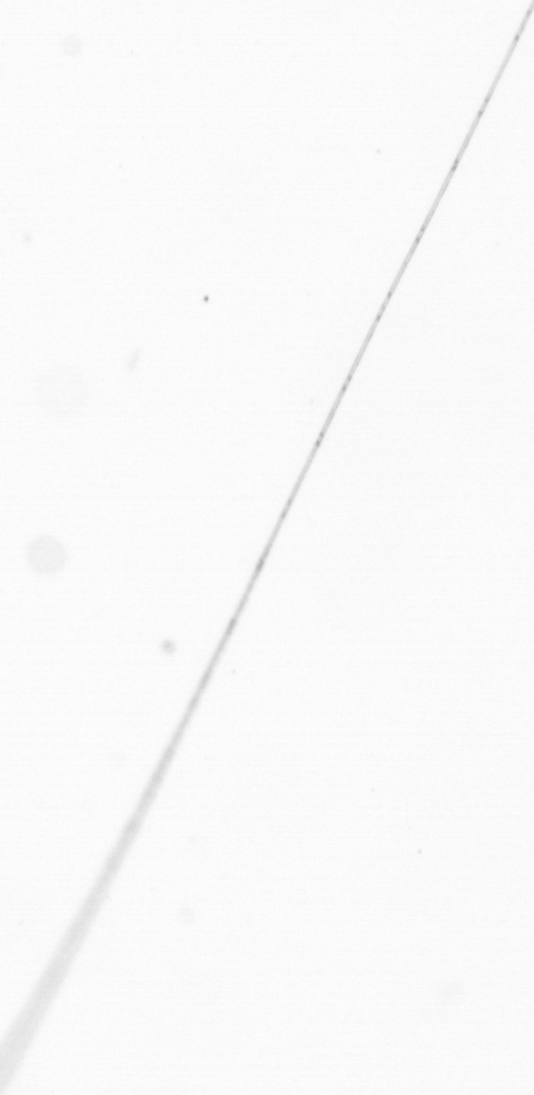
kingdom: Chromista
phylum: Ochrophyta
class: Bacillariophyceae
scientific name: Bacillariophyceae
